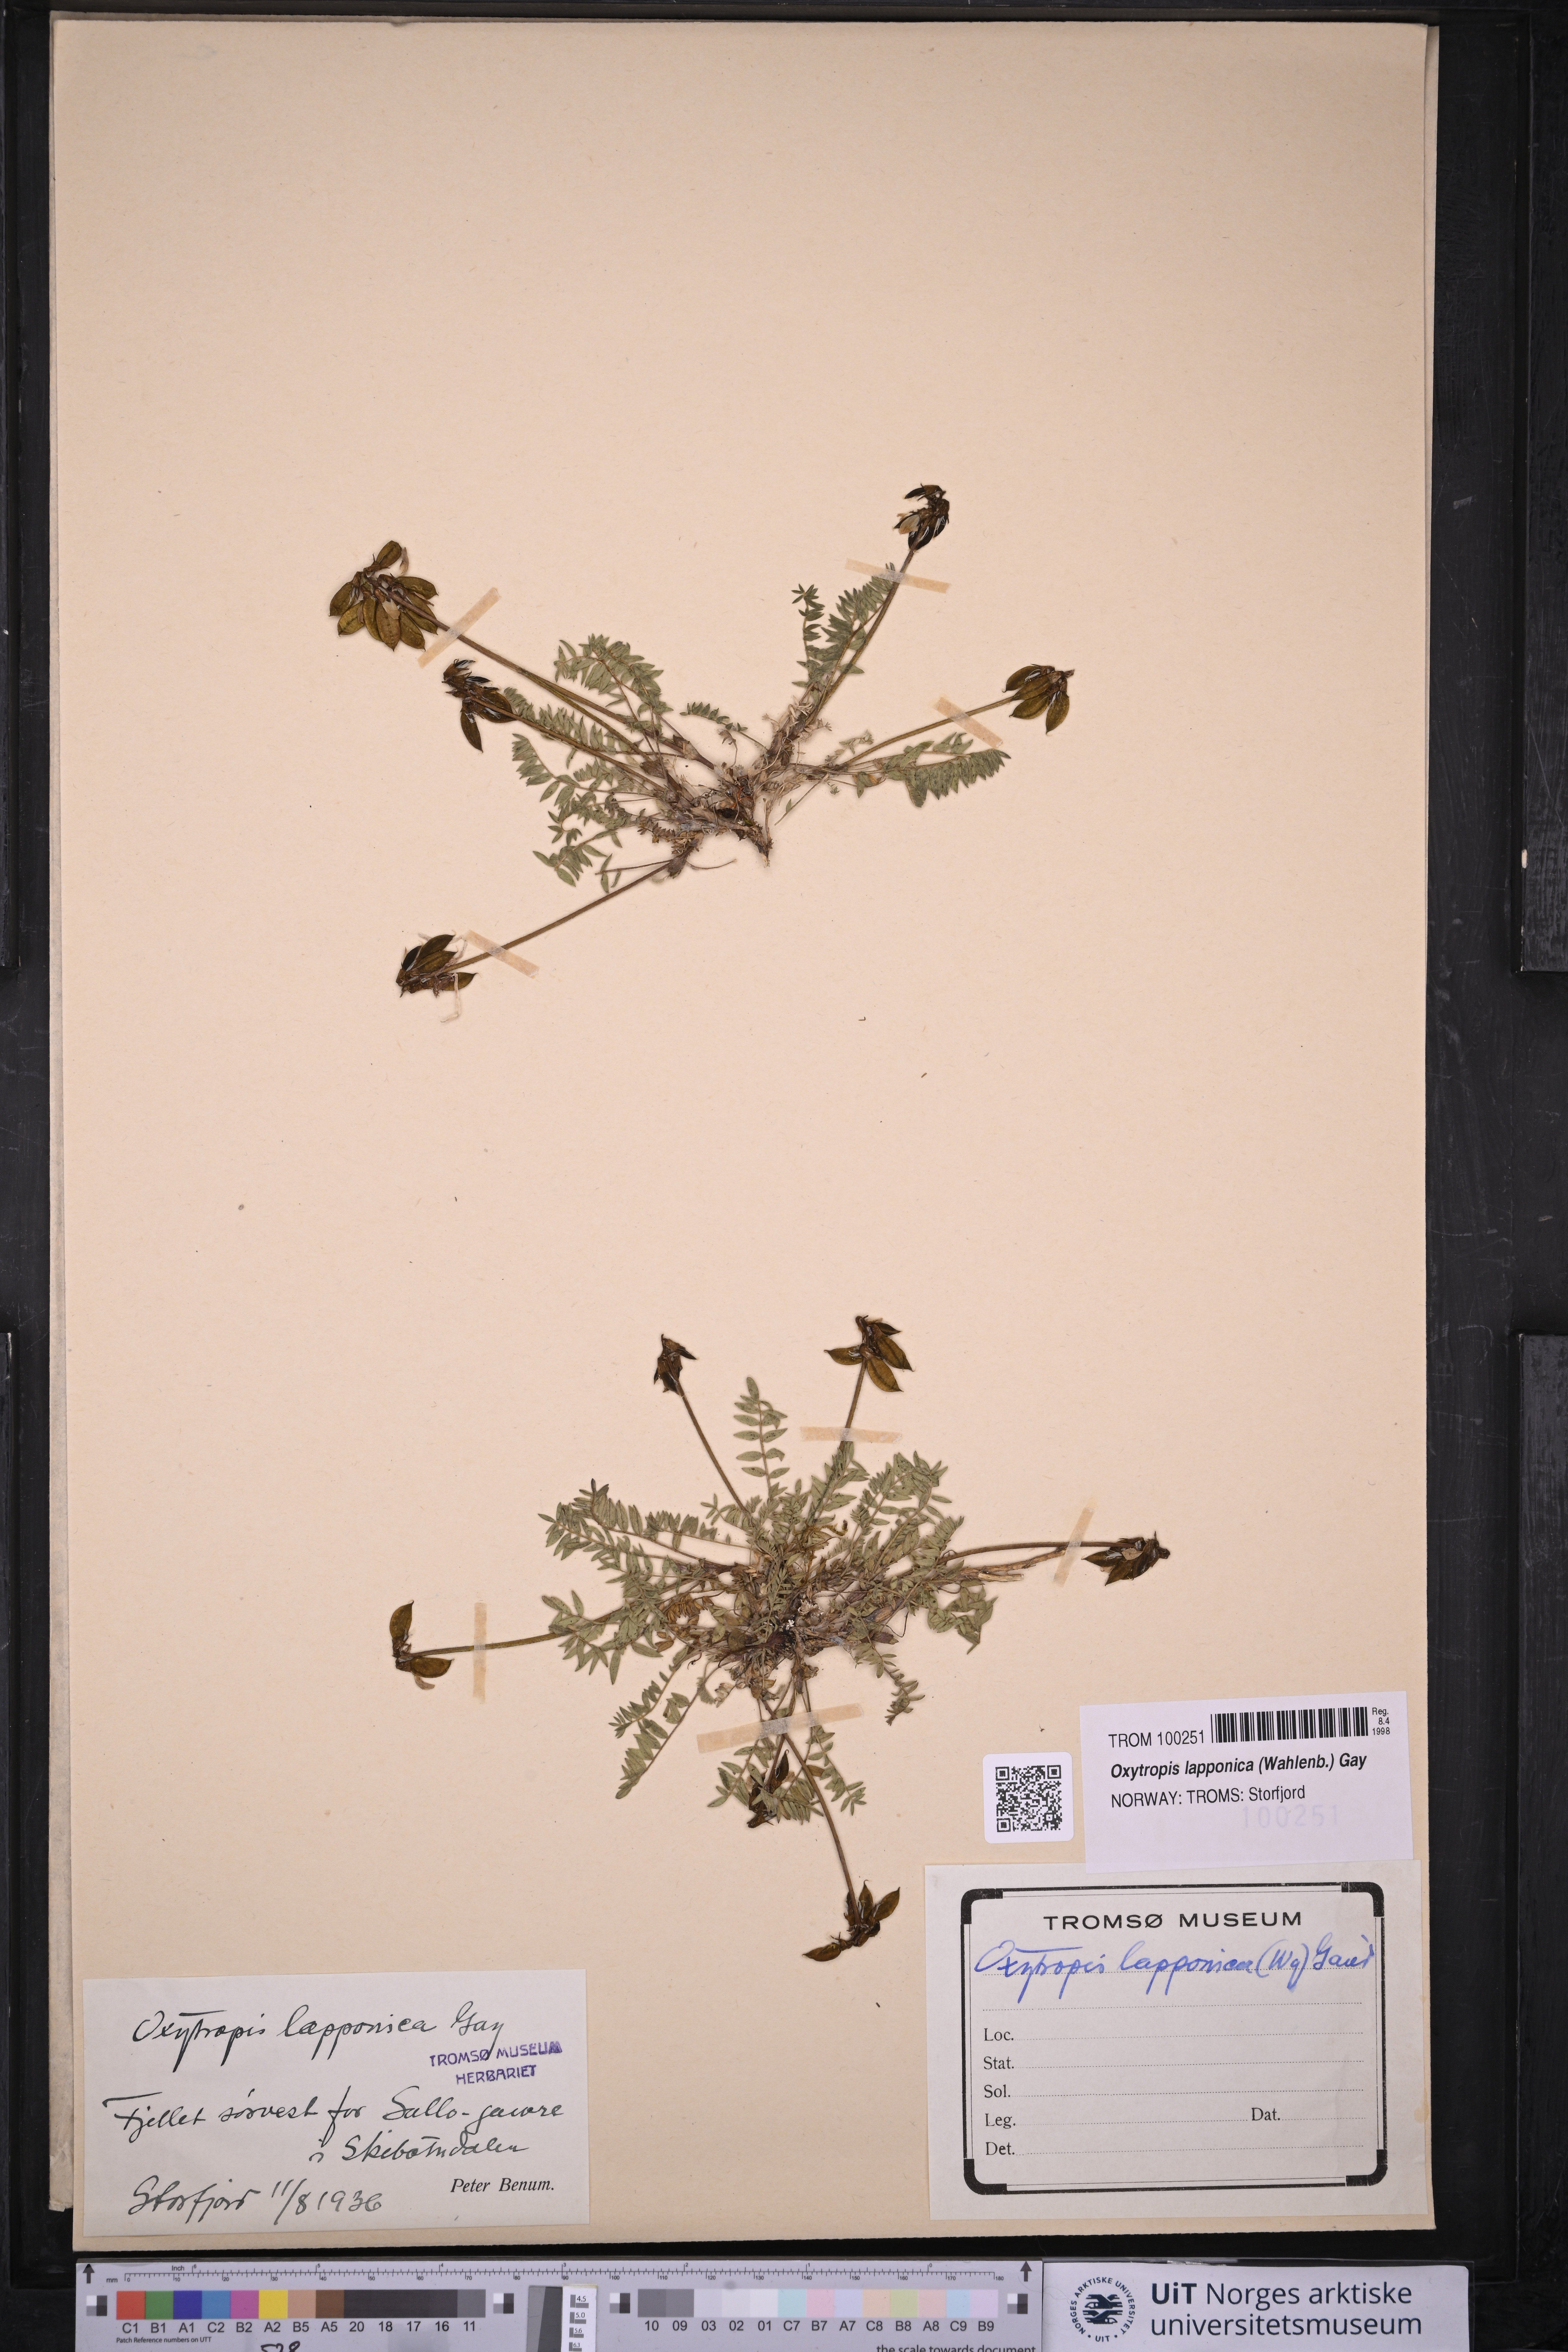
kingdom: Plantae
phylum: Tracheophyta
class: Magnoliopsida
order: Fabales
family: Fabaceae
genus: Oxytropis
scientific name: Oxytropis lapponica
